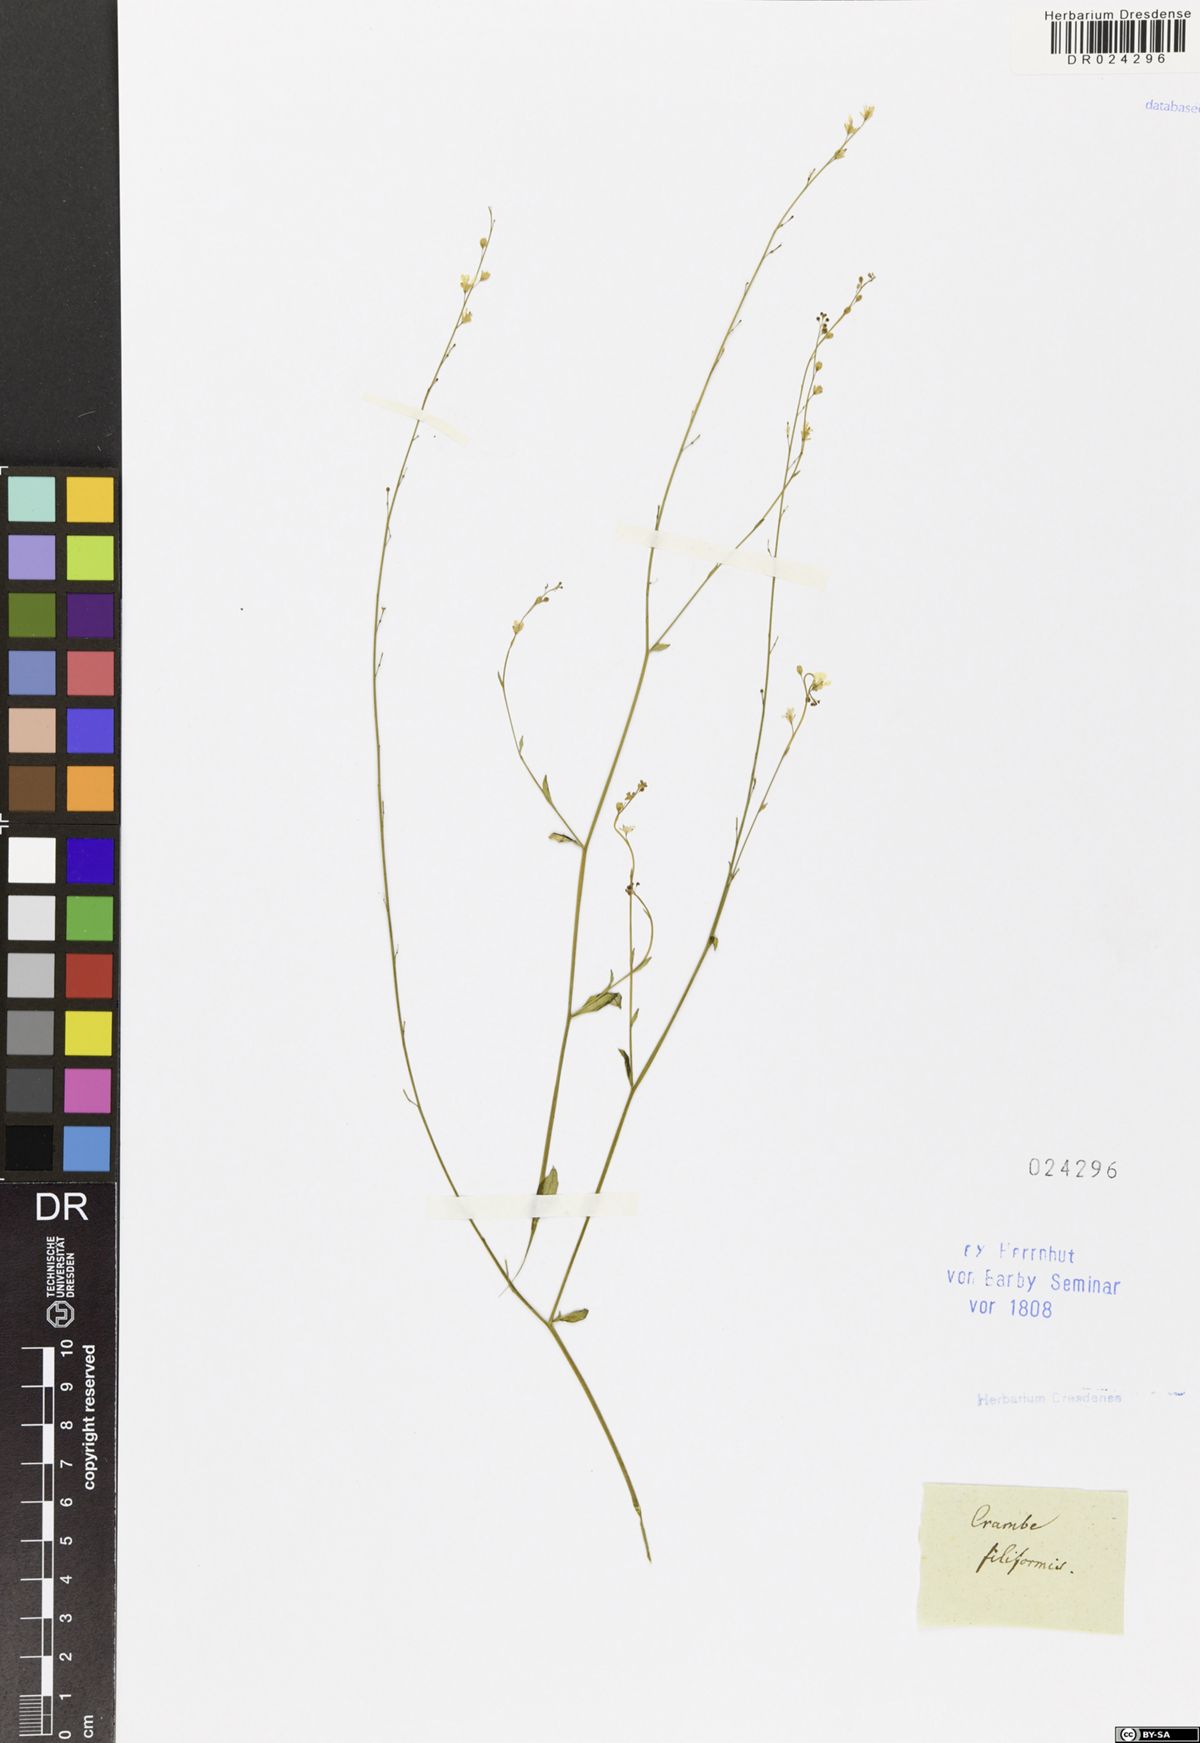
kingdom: Plantae
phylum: Tracheophyta
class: Magnoliopsida
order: Brassicales
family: Brassicaceae
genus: Crambe
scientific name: Crambe filiformis
